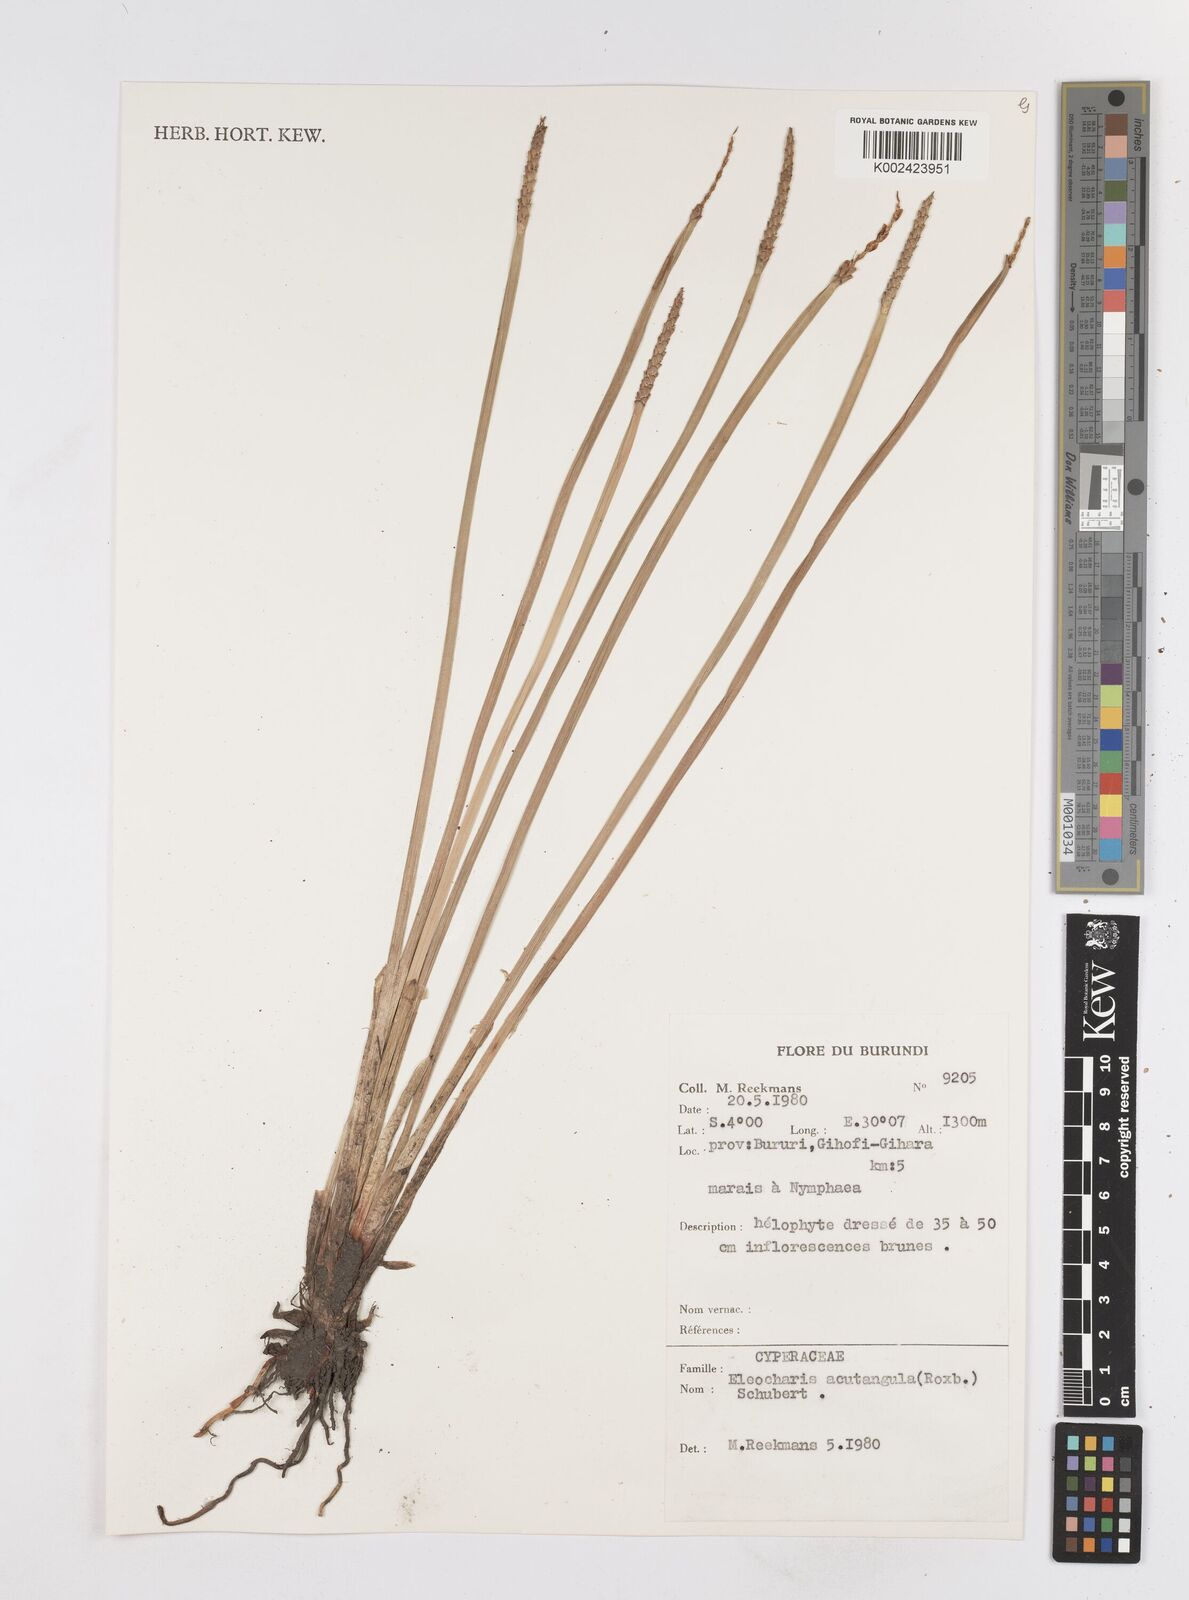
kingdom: Plantae
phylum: Tracheophyta
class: Liliopsida
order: Poales
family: Cyperaceae
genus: Eleocharis
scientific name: Eleocharis acutangula
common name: Acute spikerush
